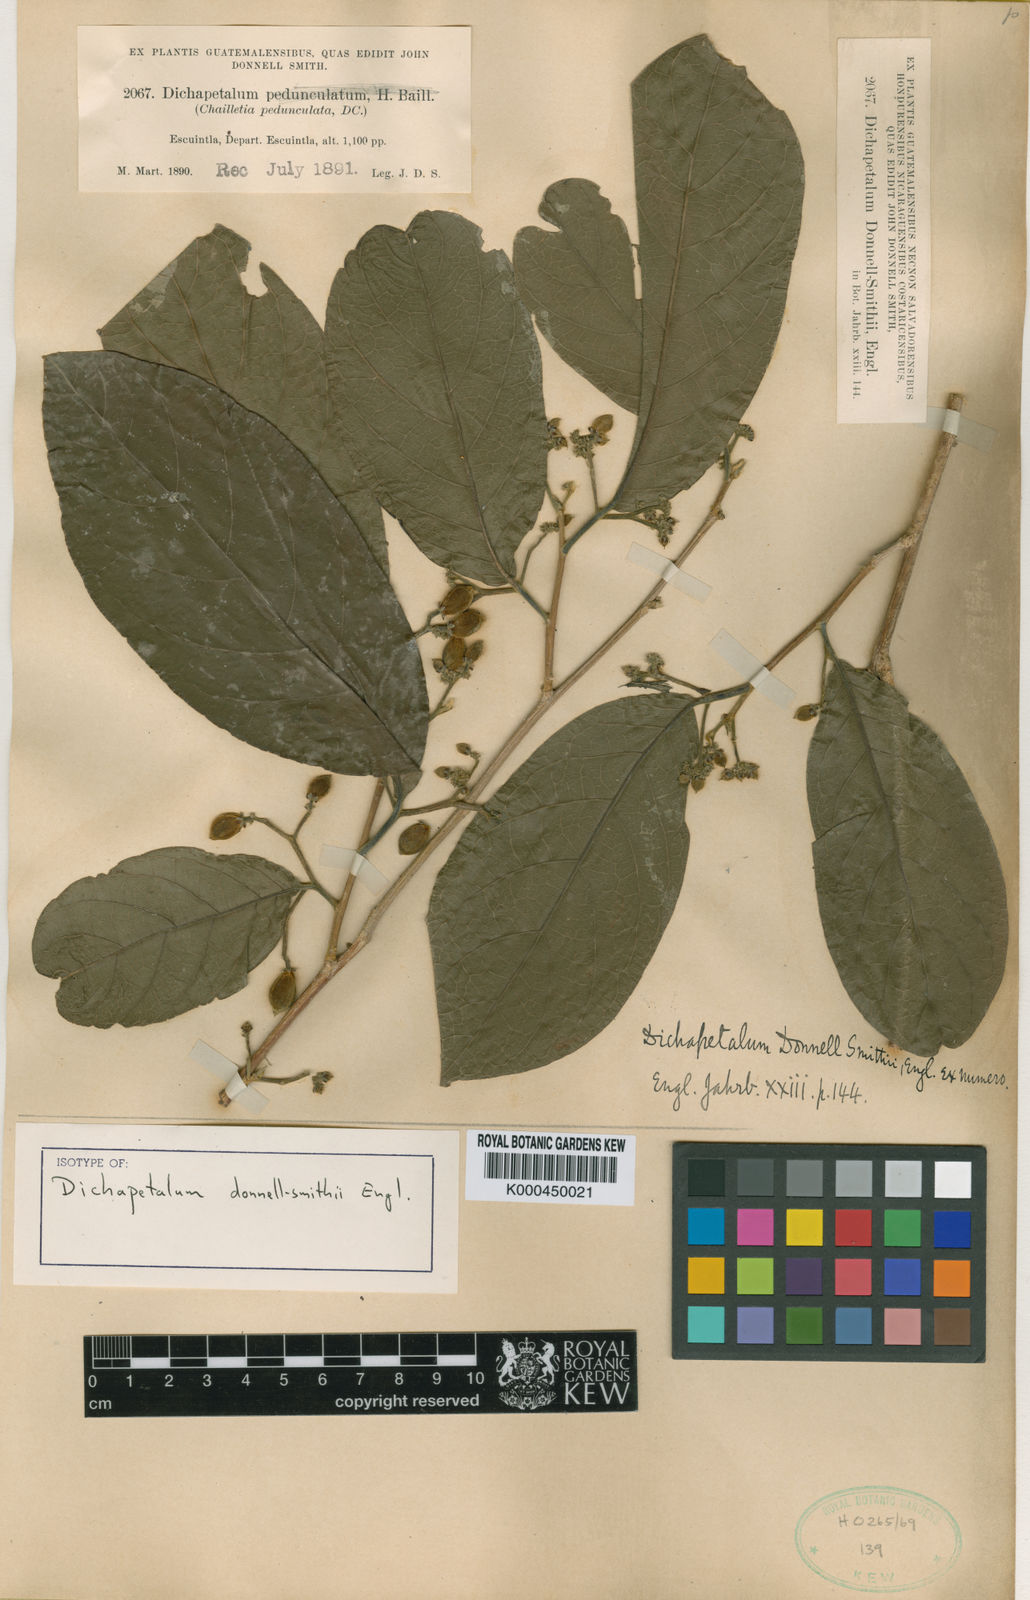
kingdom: Plantae
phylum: Tracheophyta
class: Magnoliopsida
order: Malpighiales
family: Dichapetalaceae
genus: Dichapetalum
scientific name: Dichapetalum donnell-smithii
